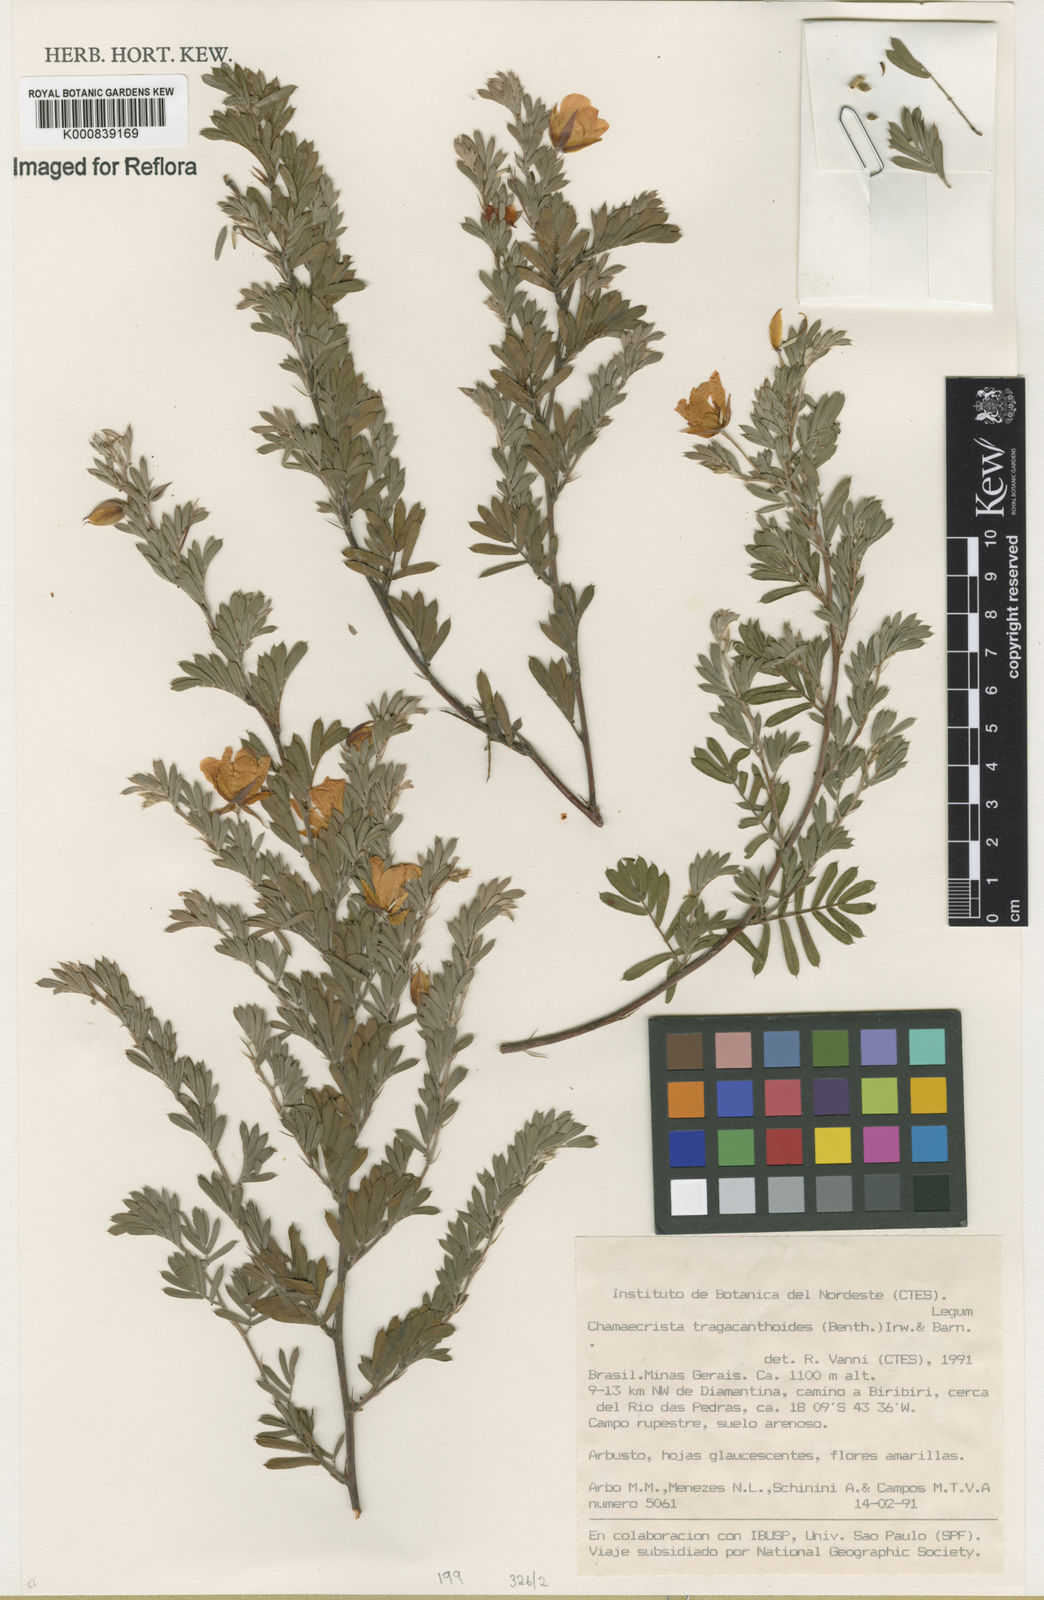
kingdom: Plantae
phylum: Tracheophyta
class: Magnoliopsida
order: Fabales
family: Fabaceae
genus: Chamaecrista
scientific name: Chamaecrista tragacanthoides
